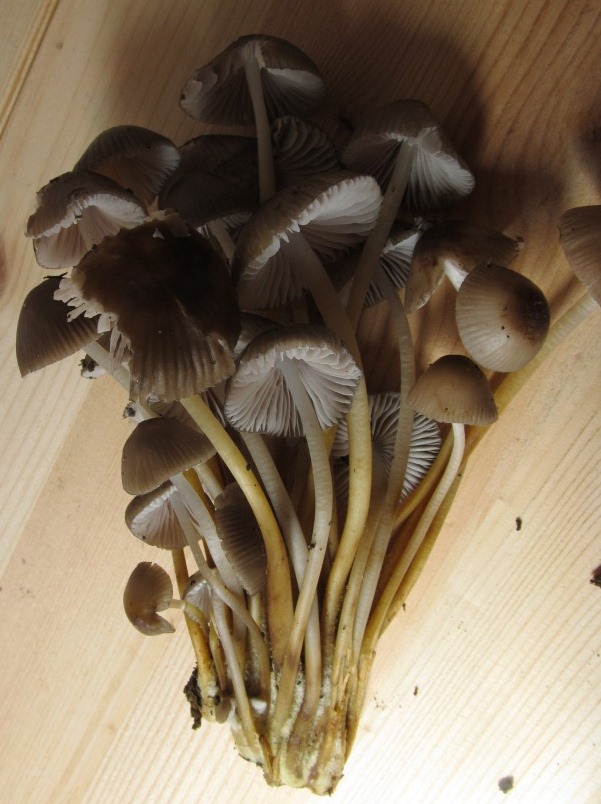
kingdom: Fungi
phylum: Basidiomycota
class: Agaricomycetes
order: Agaricales
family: Mycenaceae
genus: Mycena
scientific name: Mycena inclinata
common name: nikkende huesvamp
